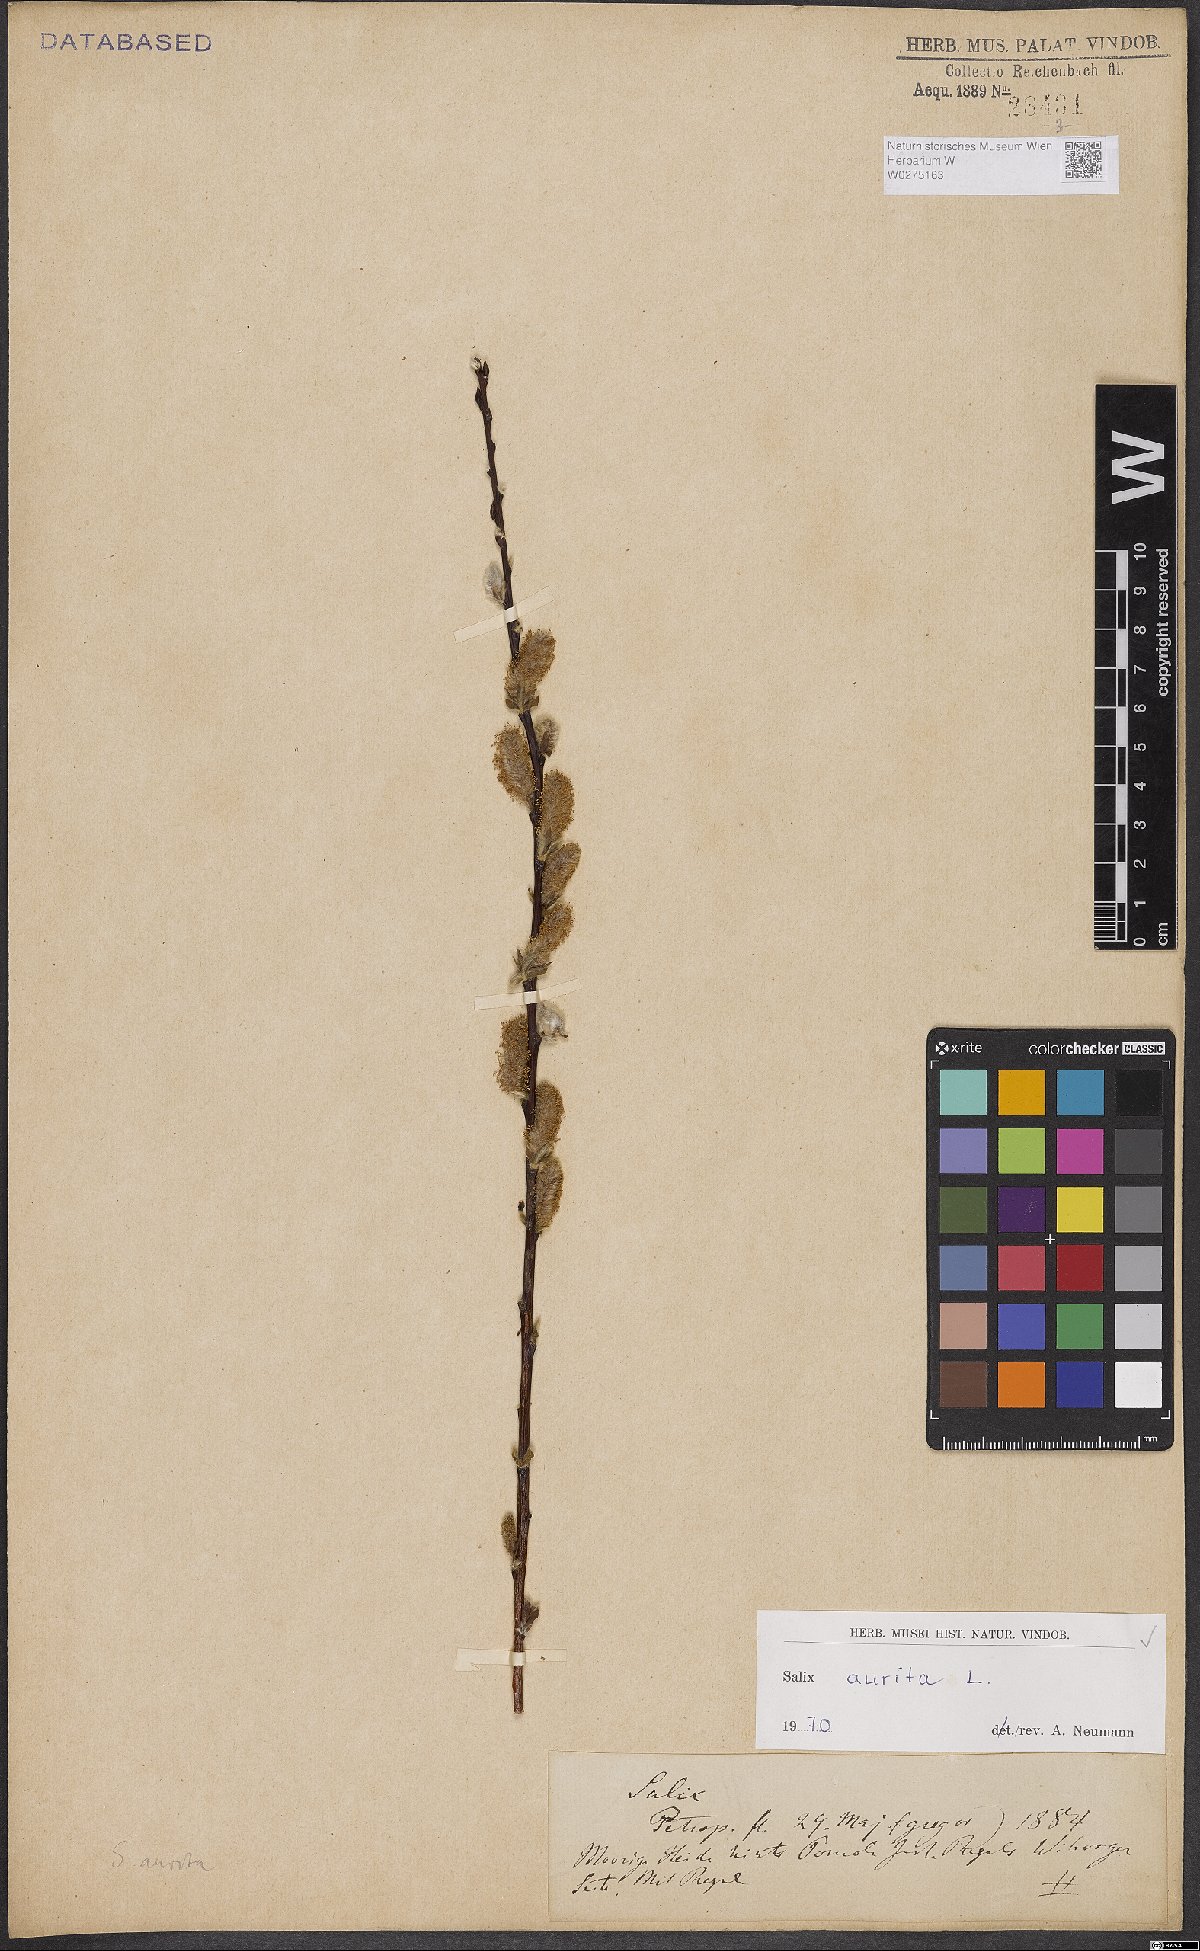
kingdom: Plantae
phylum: Tracheophyta
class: Magnoliopsida
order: Malpighiales
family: Salicaceae
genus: Salix
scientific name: Salix aurita
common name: Eared willow
